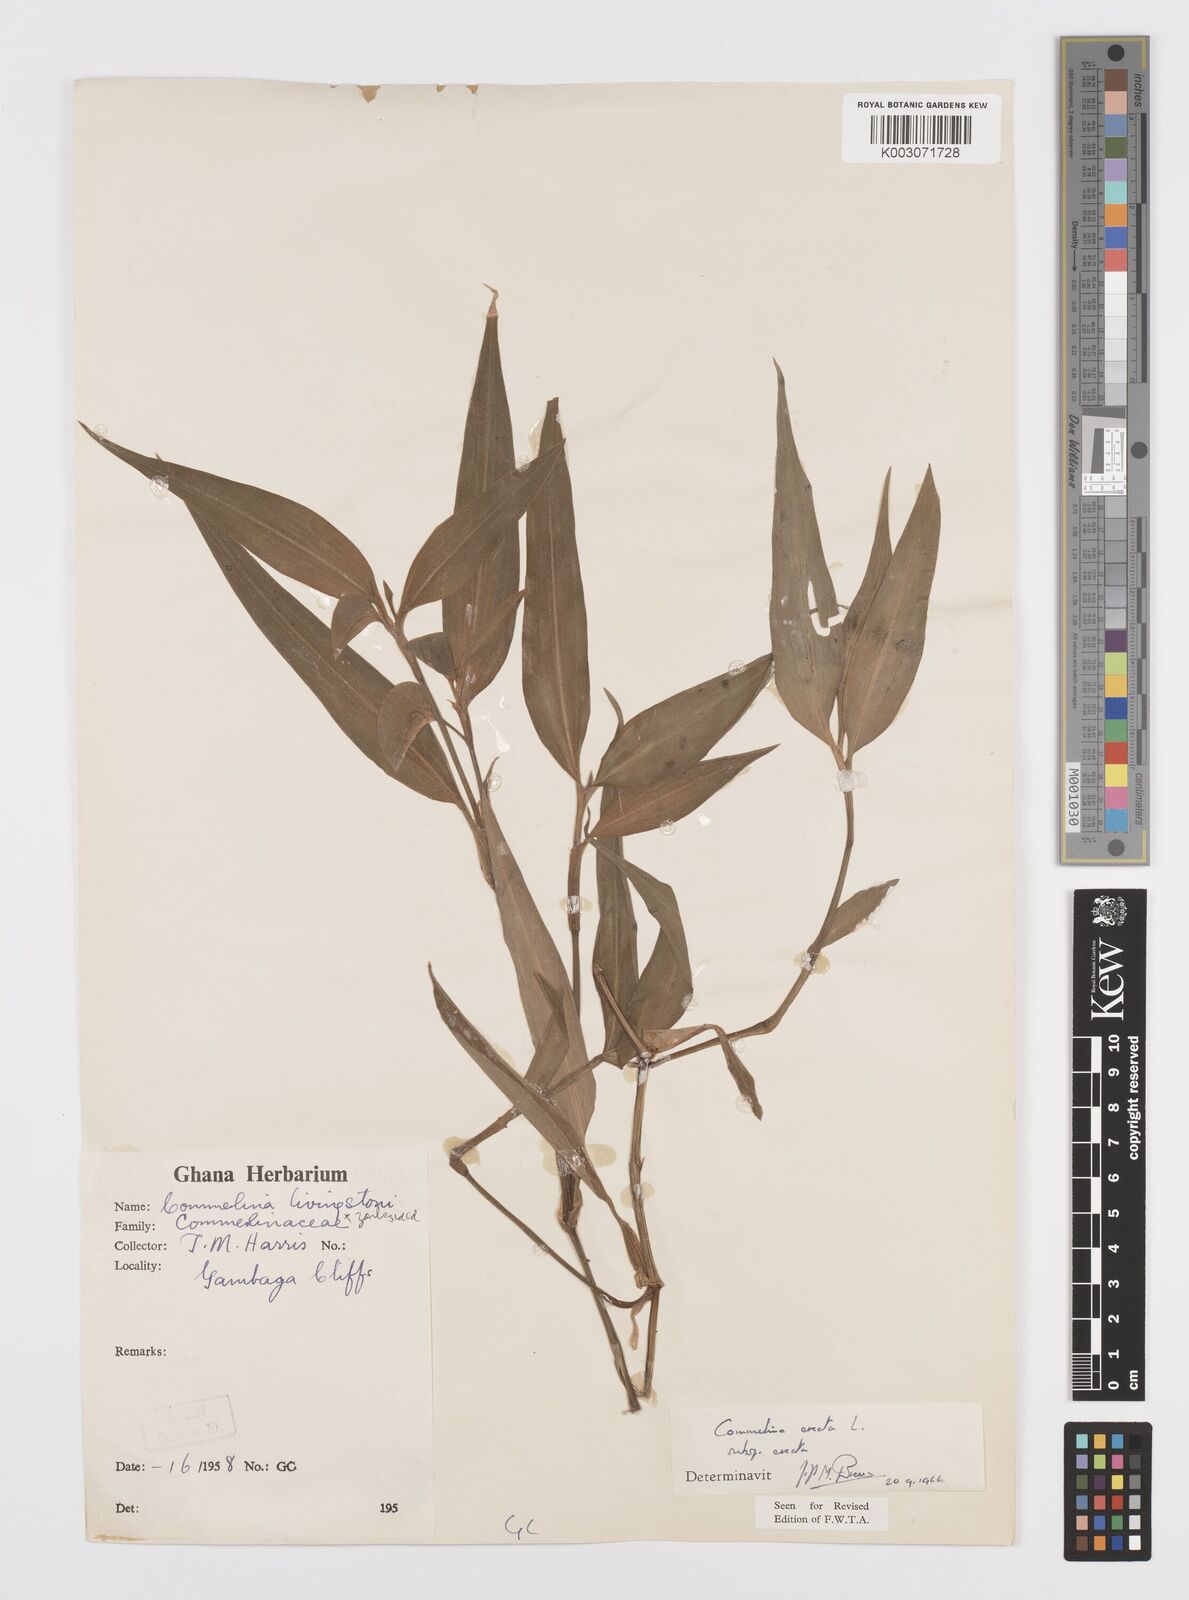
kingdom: Plantae
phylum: Tracheophyta
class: Liliopsida
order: Commelinales
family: Commelinaceae
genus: Commelina
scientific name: Commelina erecta
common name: Blousel blommetjie
